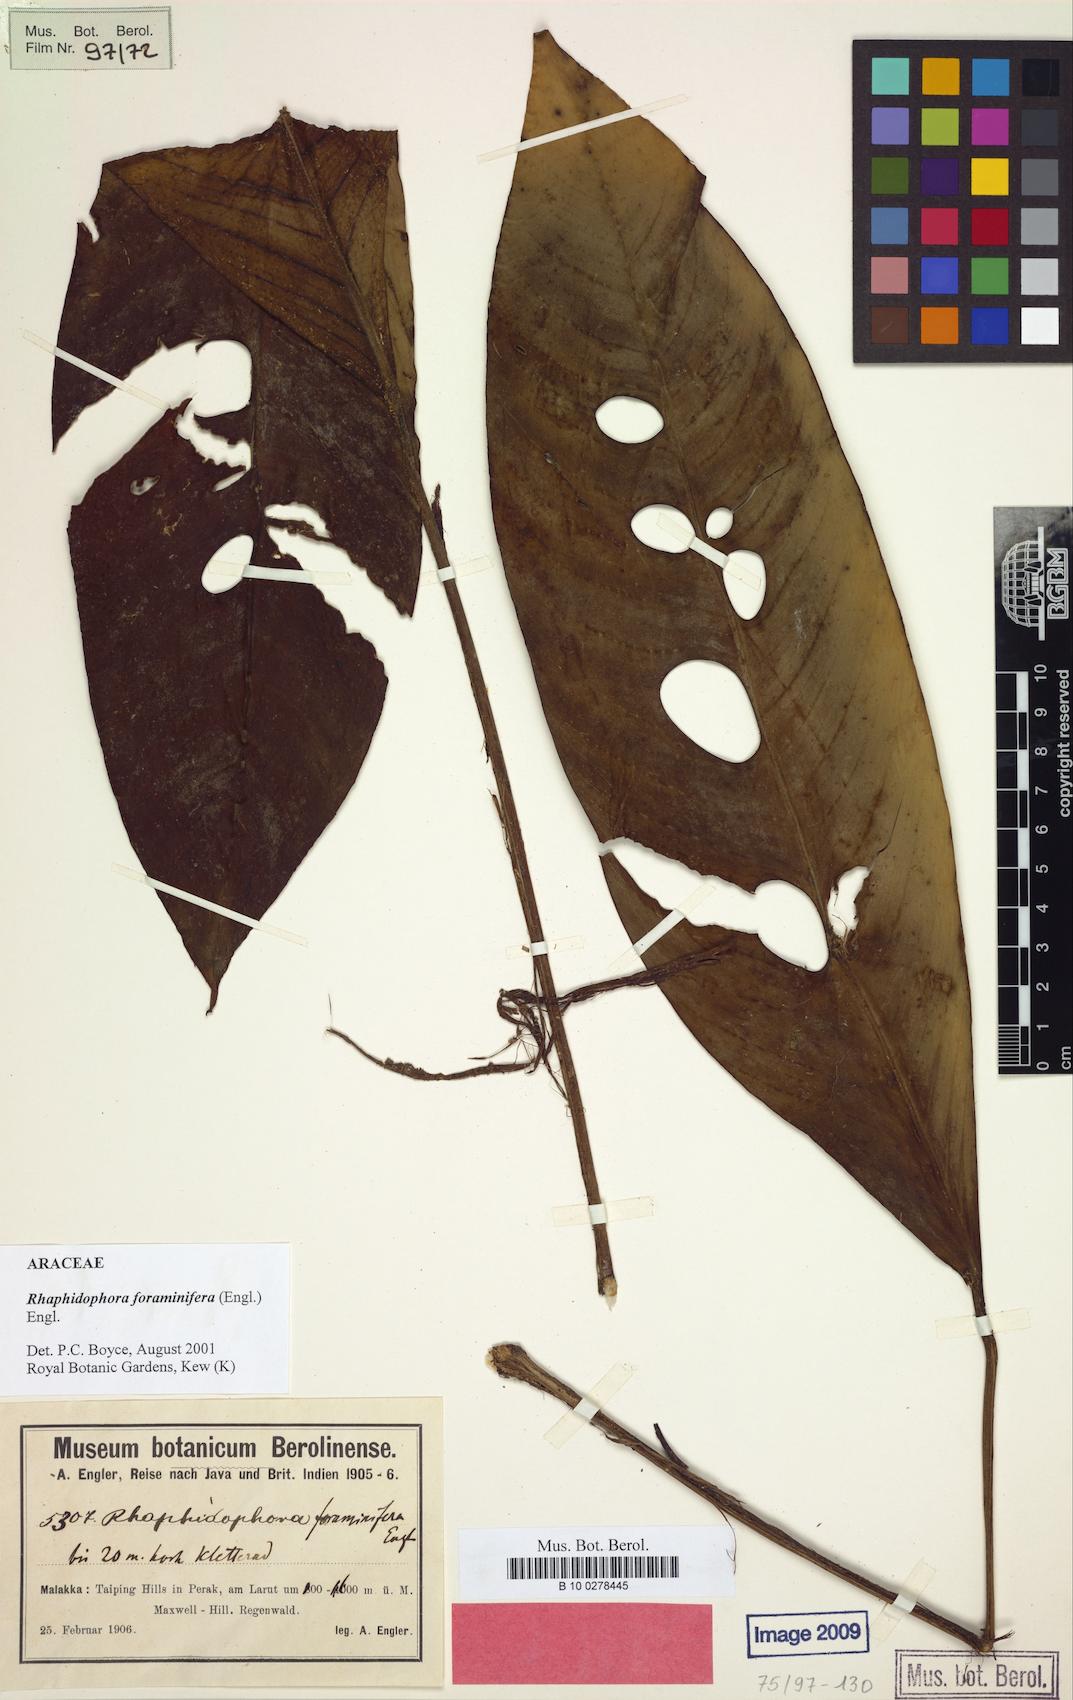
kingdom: Plantae
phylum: Tracheophyta
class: Liliopsida
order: Alismatales
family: Araceae
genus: Rhaphidophora
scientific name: Rhaphidophora foraminifera
